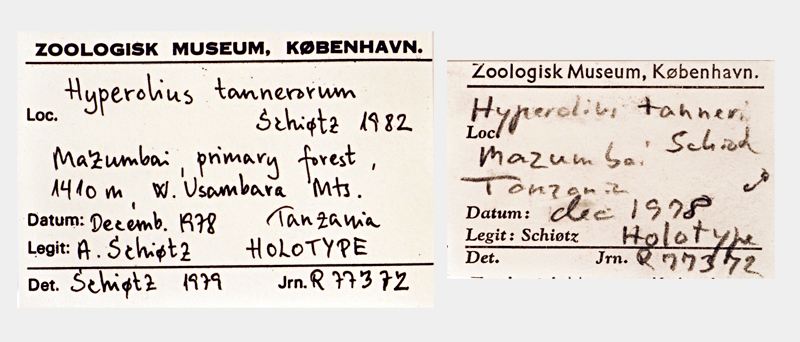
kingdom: Animalia
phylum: Chordata
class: Amphibia
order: Anura
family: Hyperoliidae
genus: Hyperolius
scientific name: Hyperolius tanneri
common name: Tanners' reed frog
